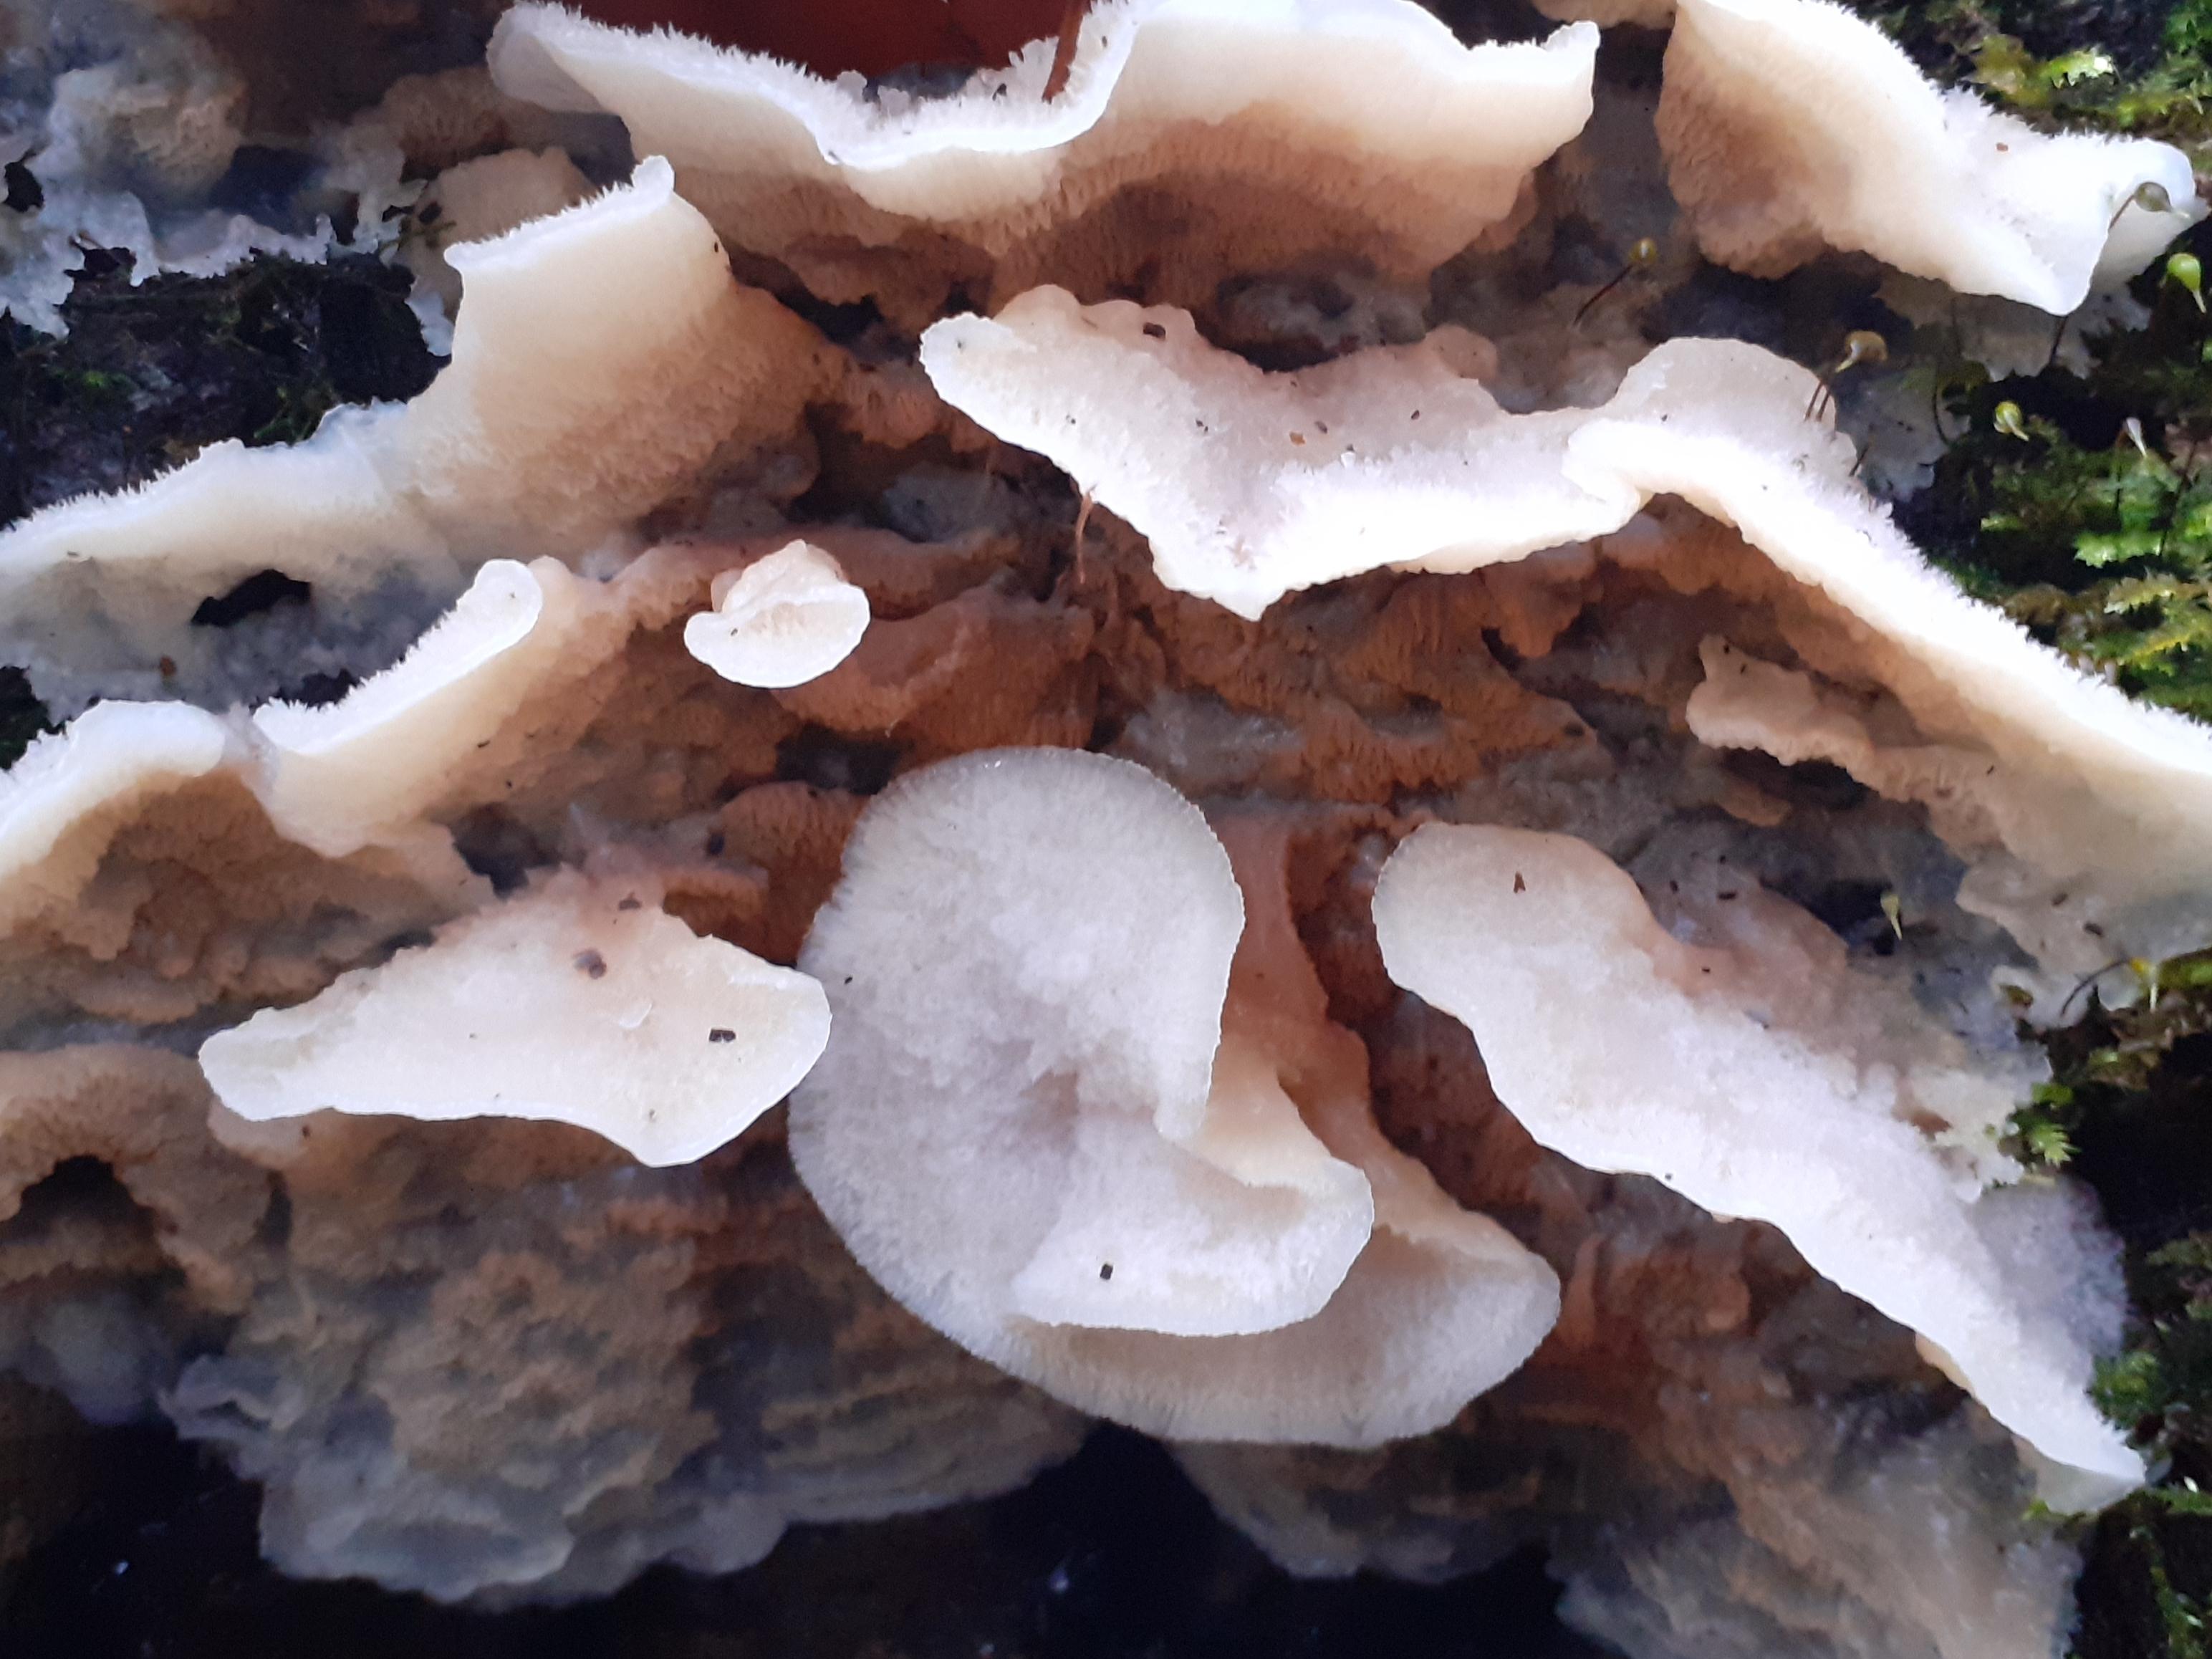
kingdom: Fungi
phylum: Basidiomycota
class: Agaricomycetes
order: Polyporales
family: Meruliaceae
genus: Phlebia
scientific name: Phlebia tremellosa
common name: bævrende åresvamp
